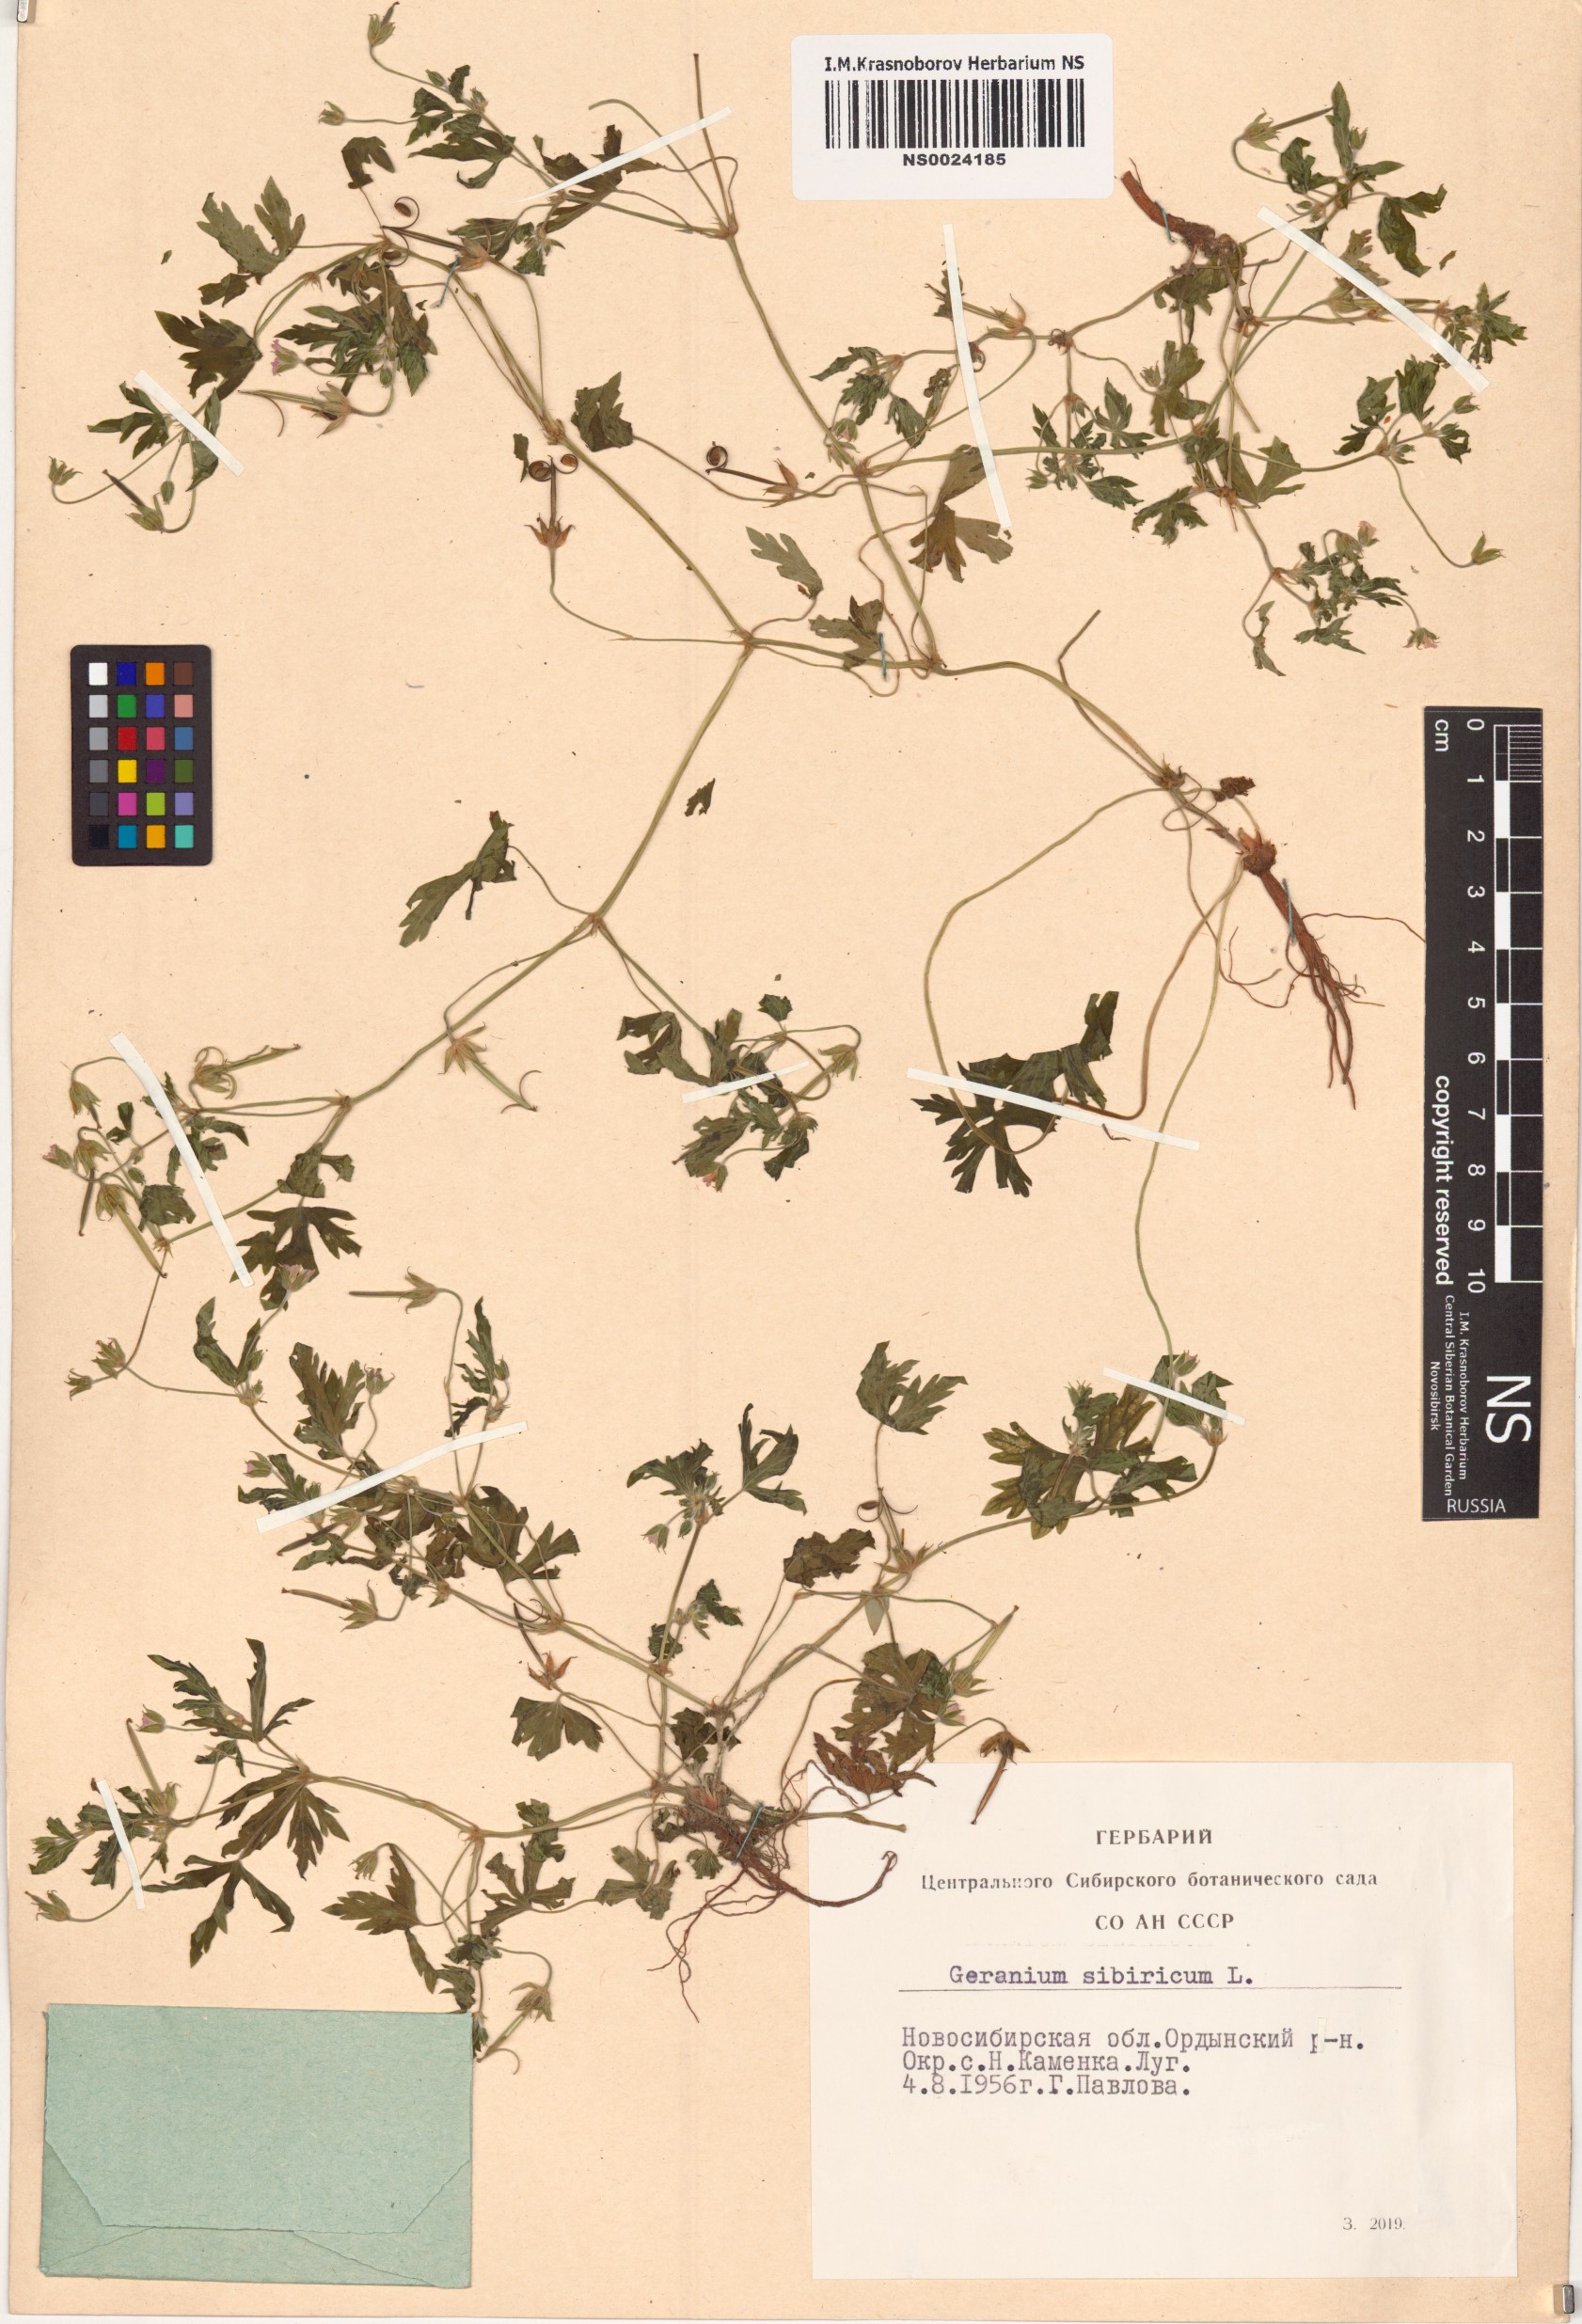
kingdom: Plantae
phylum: Tracheophyta
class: Magnoliopsida
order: Geraniales
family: Geraniaceae
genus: Geranium
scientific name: Geranium sibiricum
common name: Siberian crane's-bill
